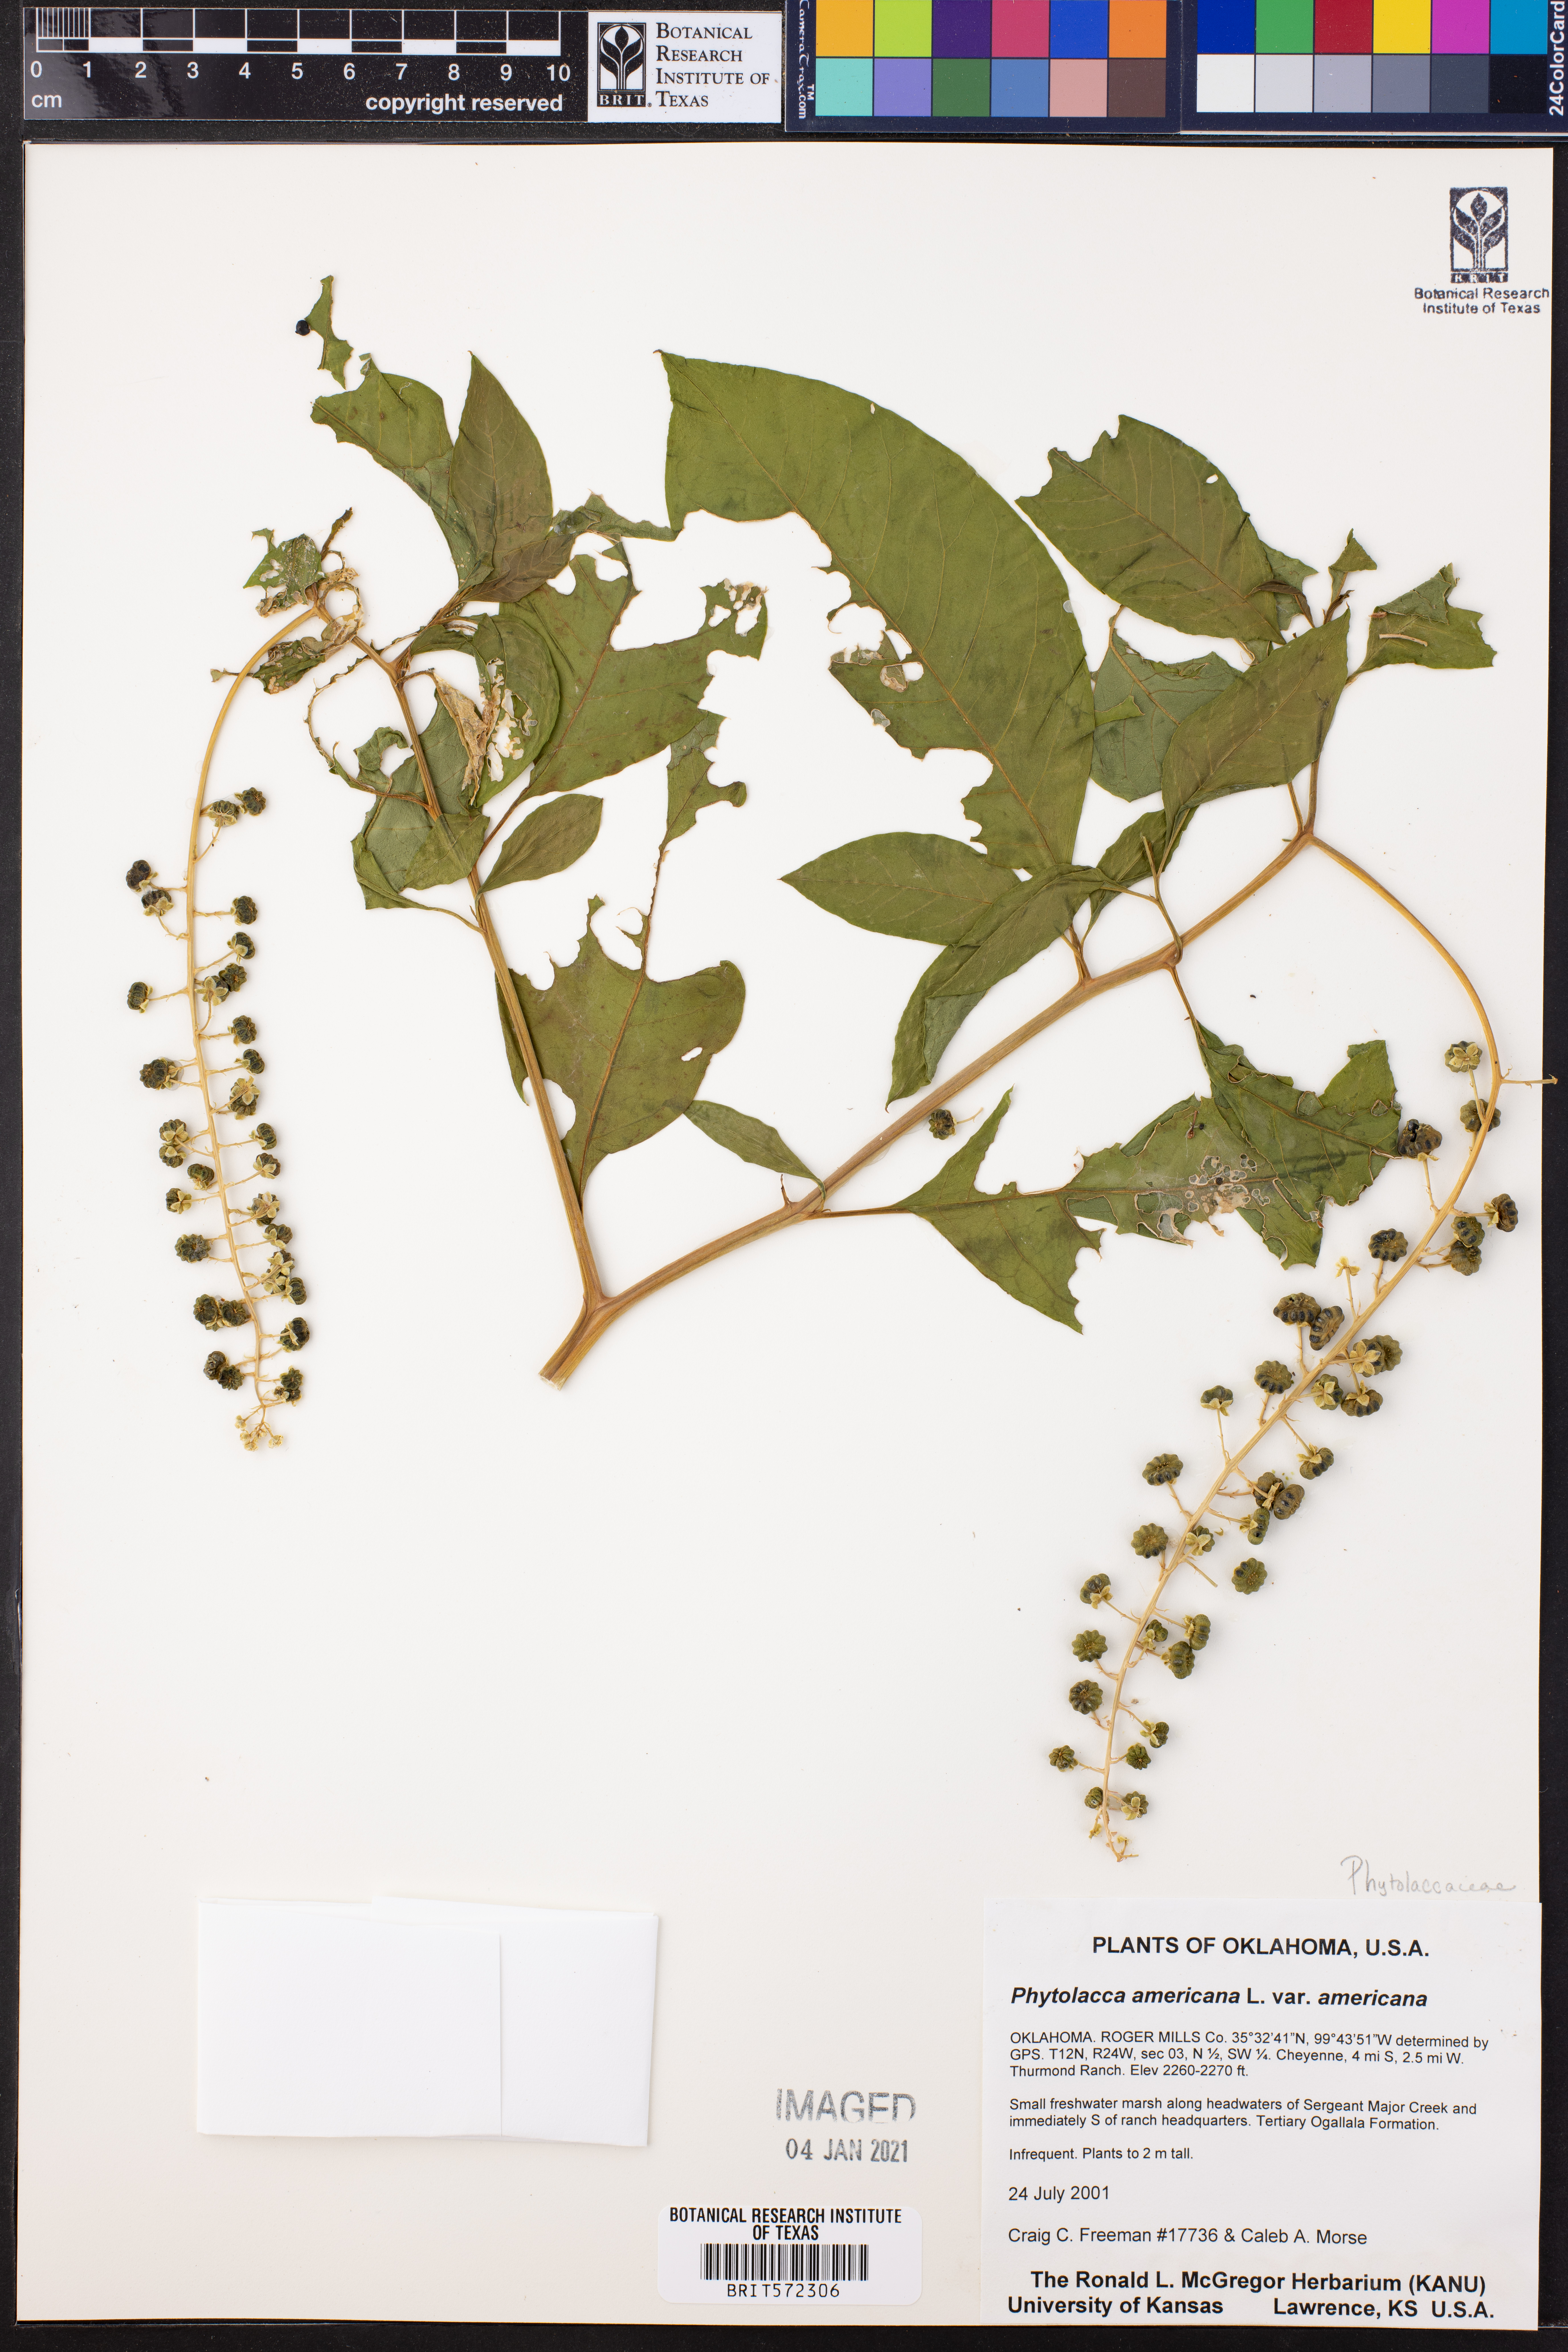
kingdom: Plantae
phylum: Tracheophyta
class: Magnoliopsida
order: Caryophyllales
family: Phytolaccaceae
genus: Phytolacca
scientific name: Phytolacca americana
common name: American pokeweed
